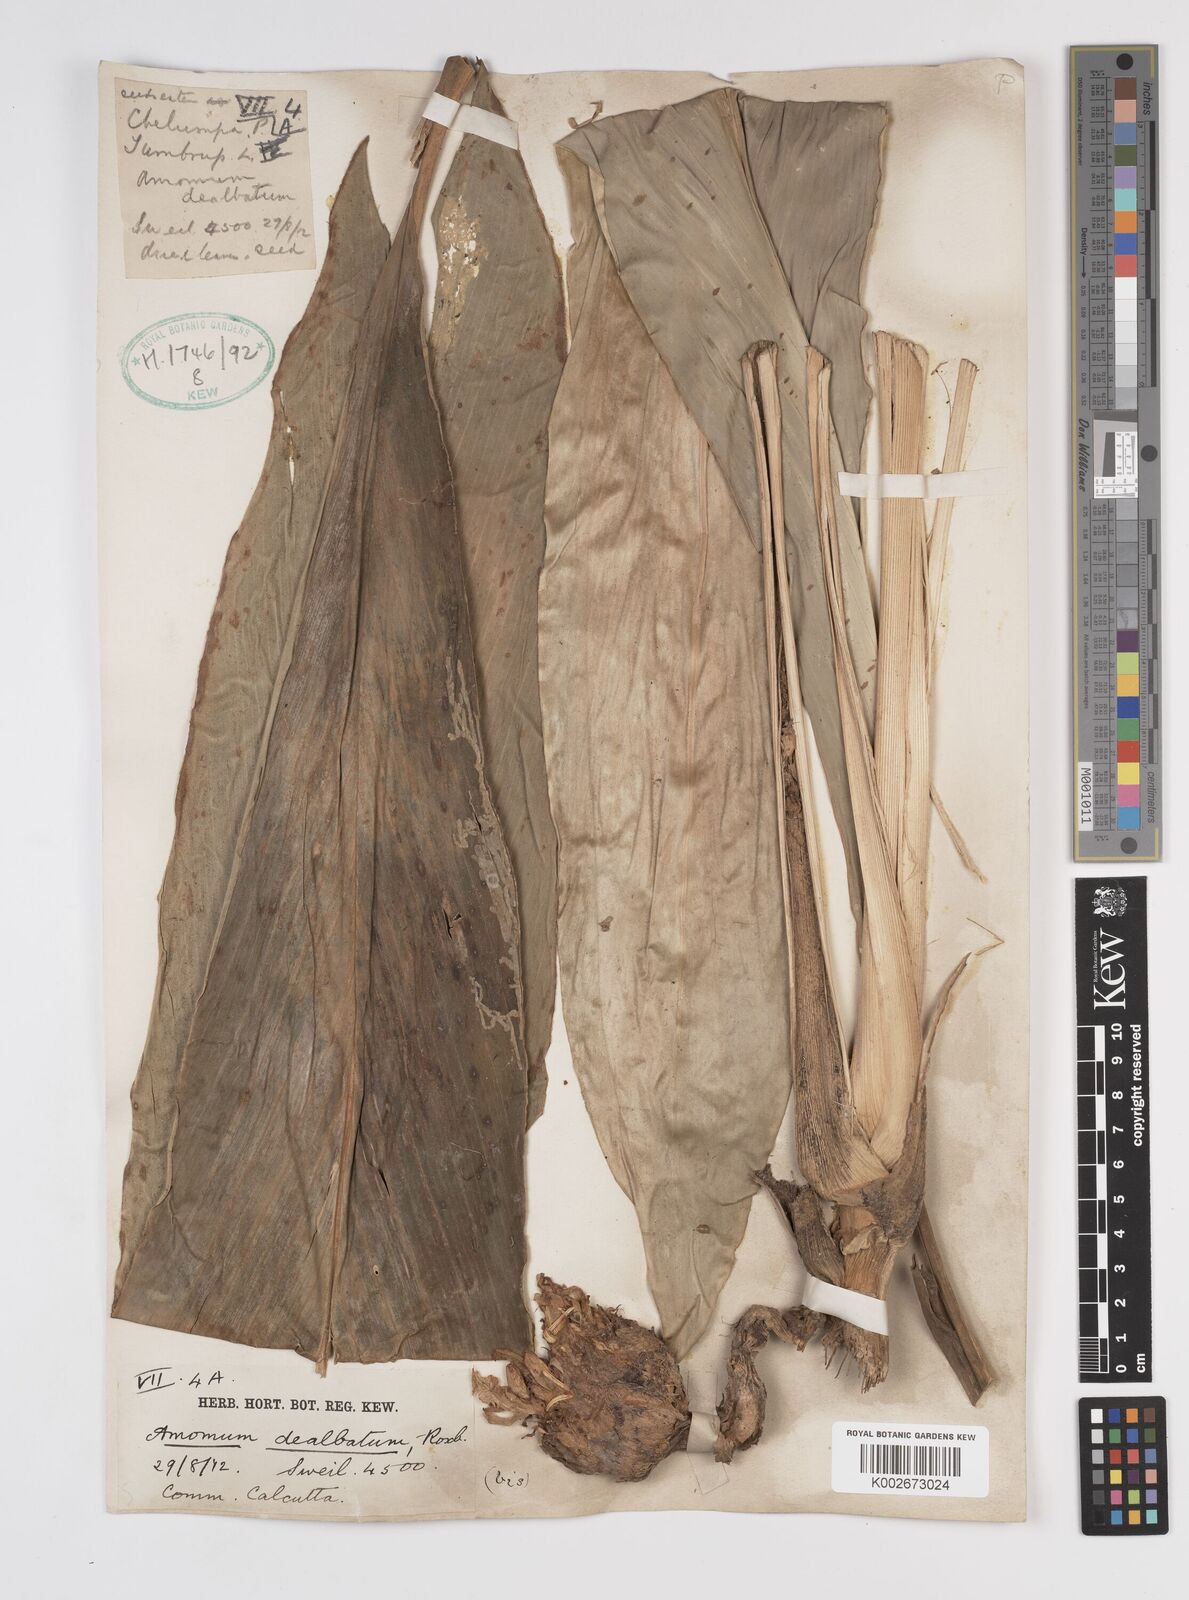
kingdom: Plantae
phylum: Tracheophyta
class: Liliopsida
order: Zingiberales
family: Zingiberaceae
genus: Amomum
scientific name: Amomum dealbatum
